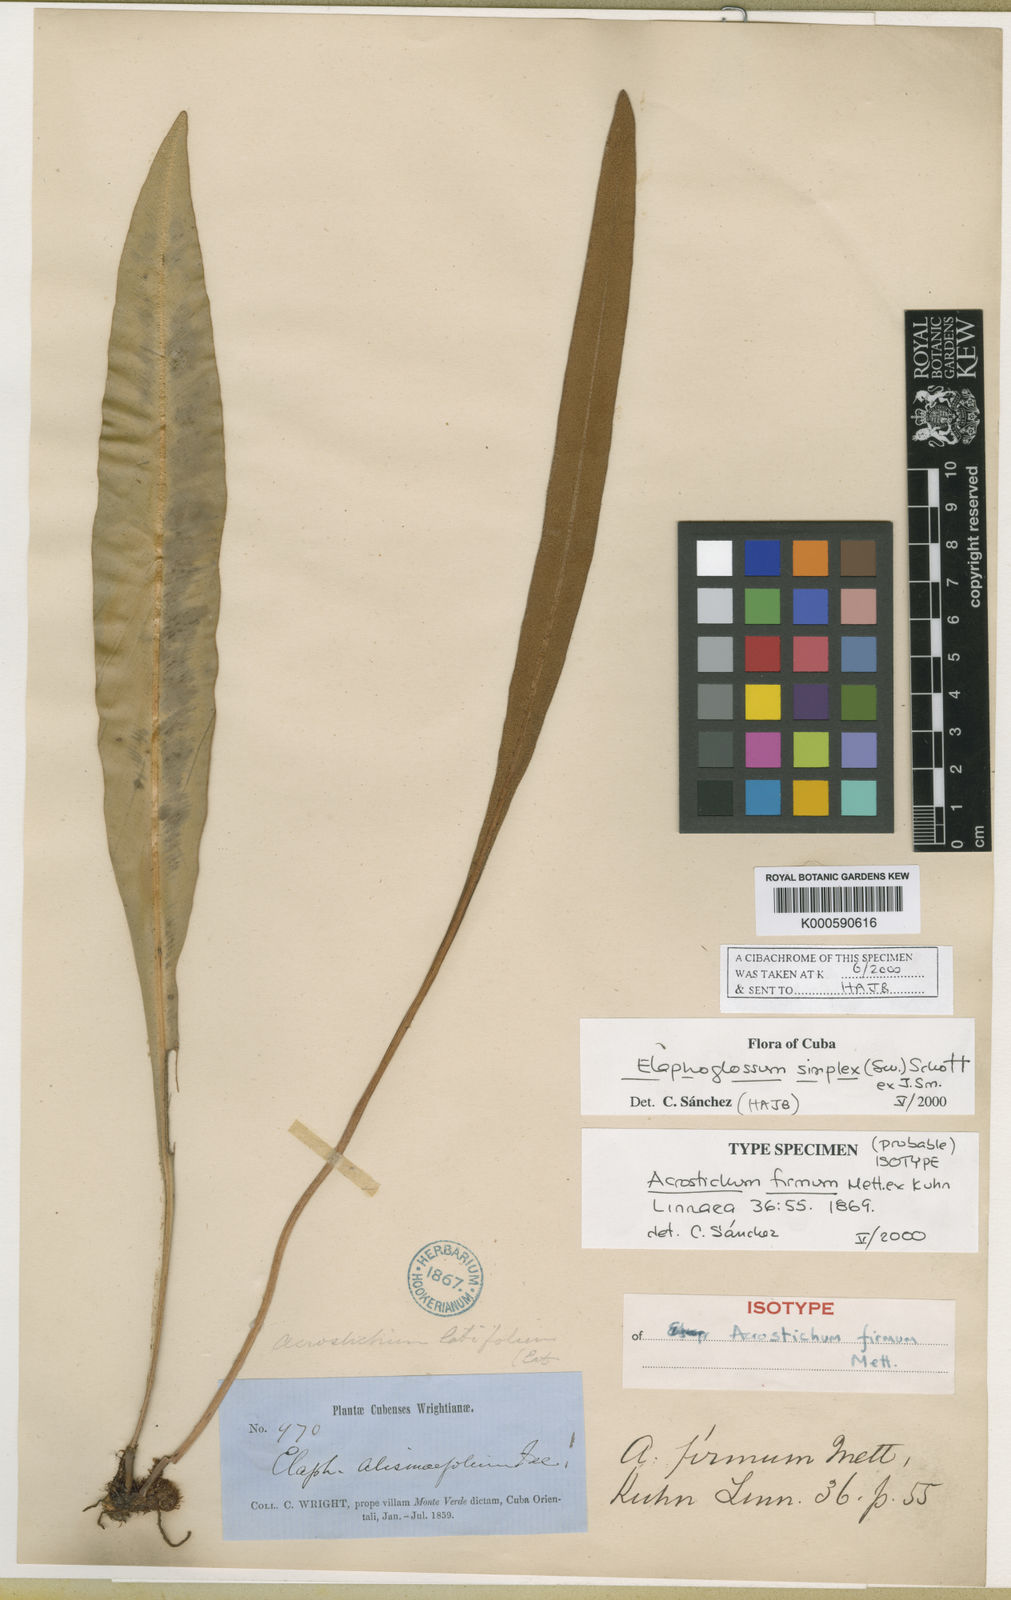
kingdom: Plantae
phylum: Tracheophyta
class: Polypodiopsida
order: Polypodiales
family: Dryopteridaceae
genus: Elaphoglossum
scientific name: Elaphoglossum hoffmannii
